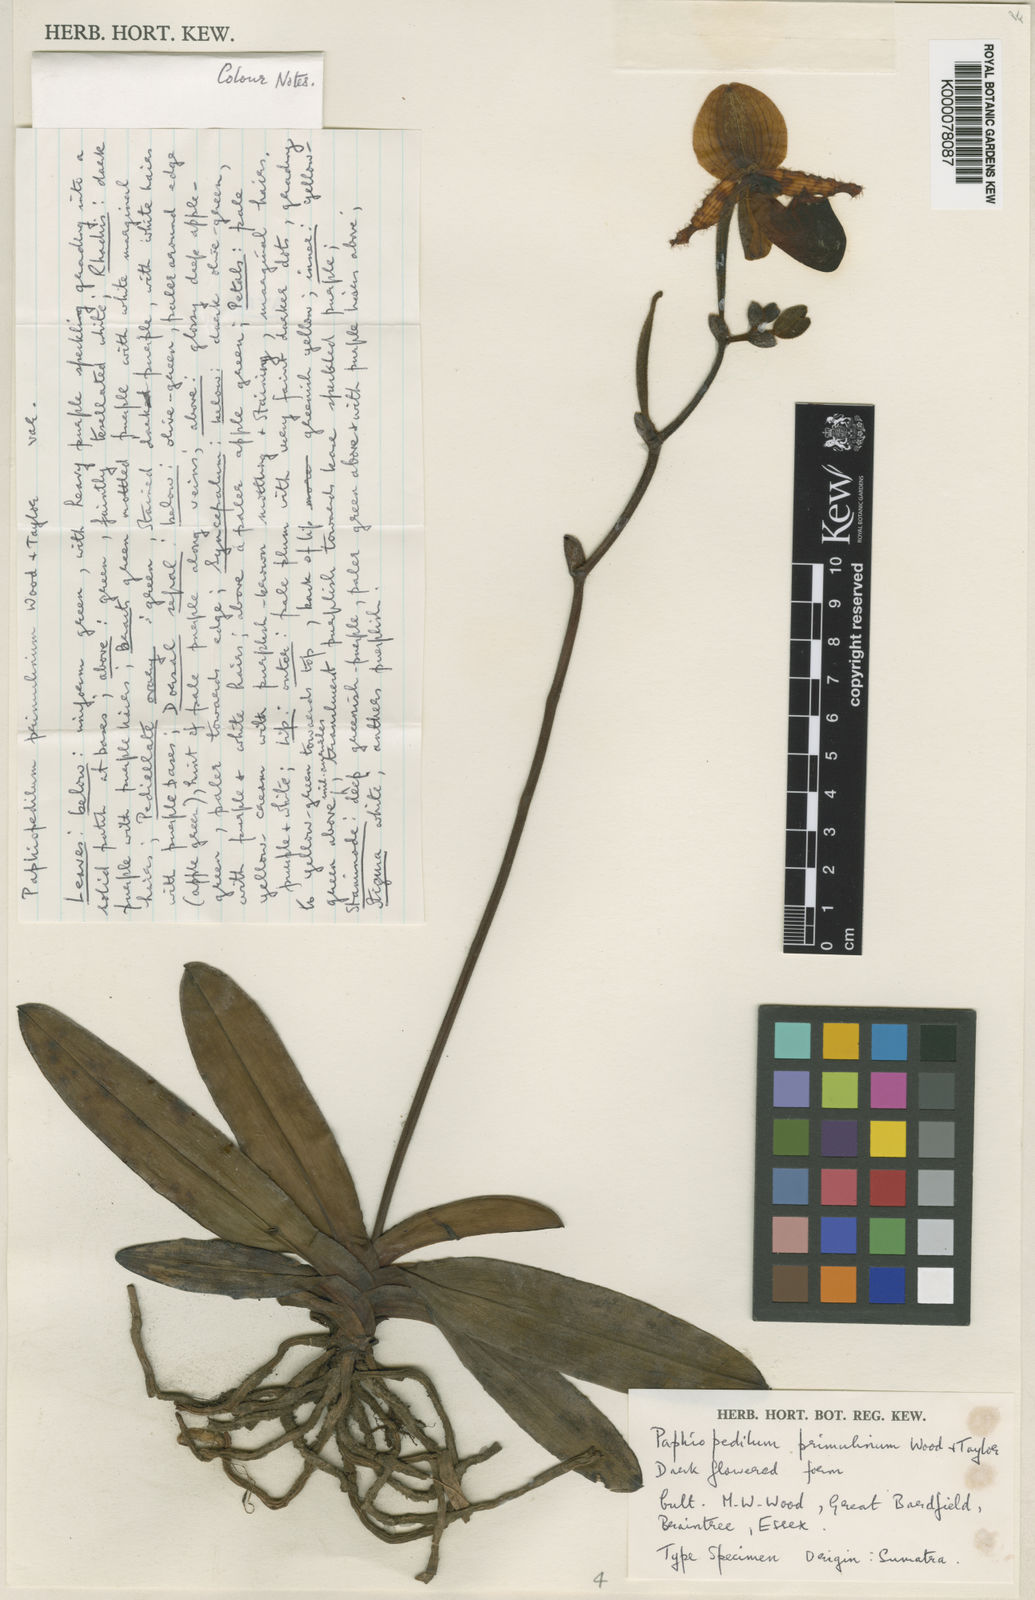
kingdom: Plantae
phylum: Tracheophyta
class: Liliopsida
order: Asparagales
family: Orchidaceae
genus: Paphiopedilum
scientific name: Paphiopedilum primulinum
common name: Primrose yellow paphiopedilum
